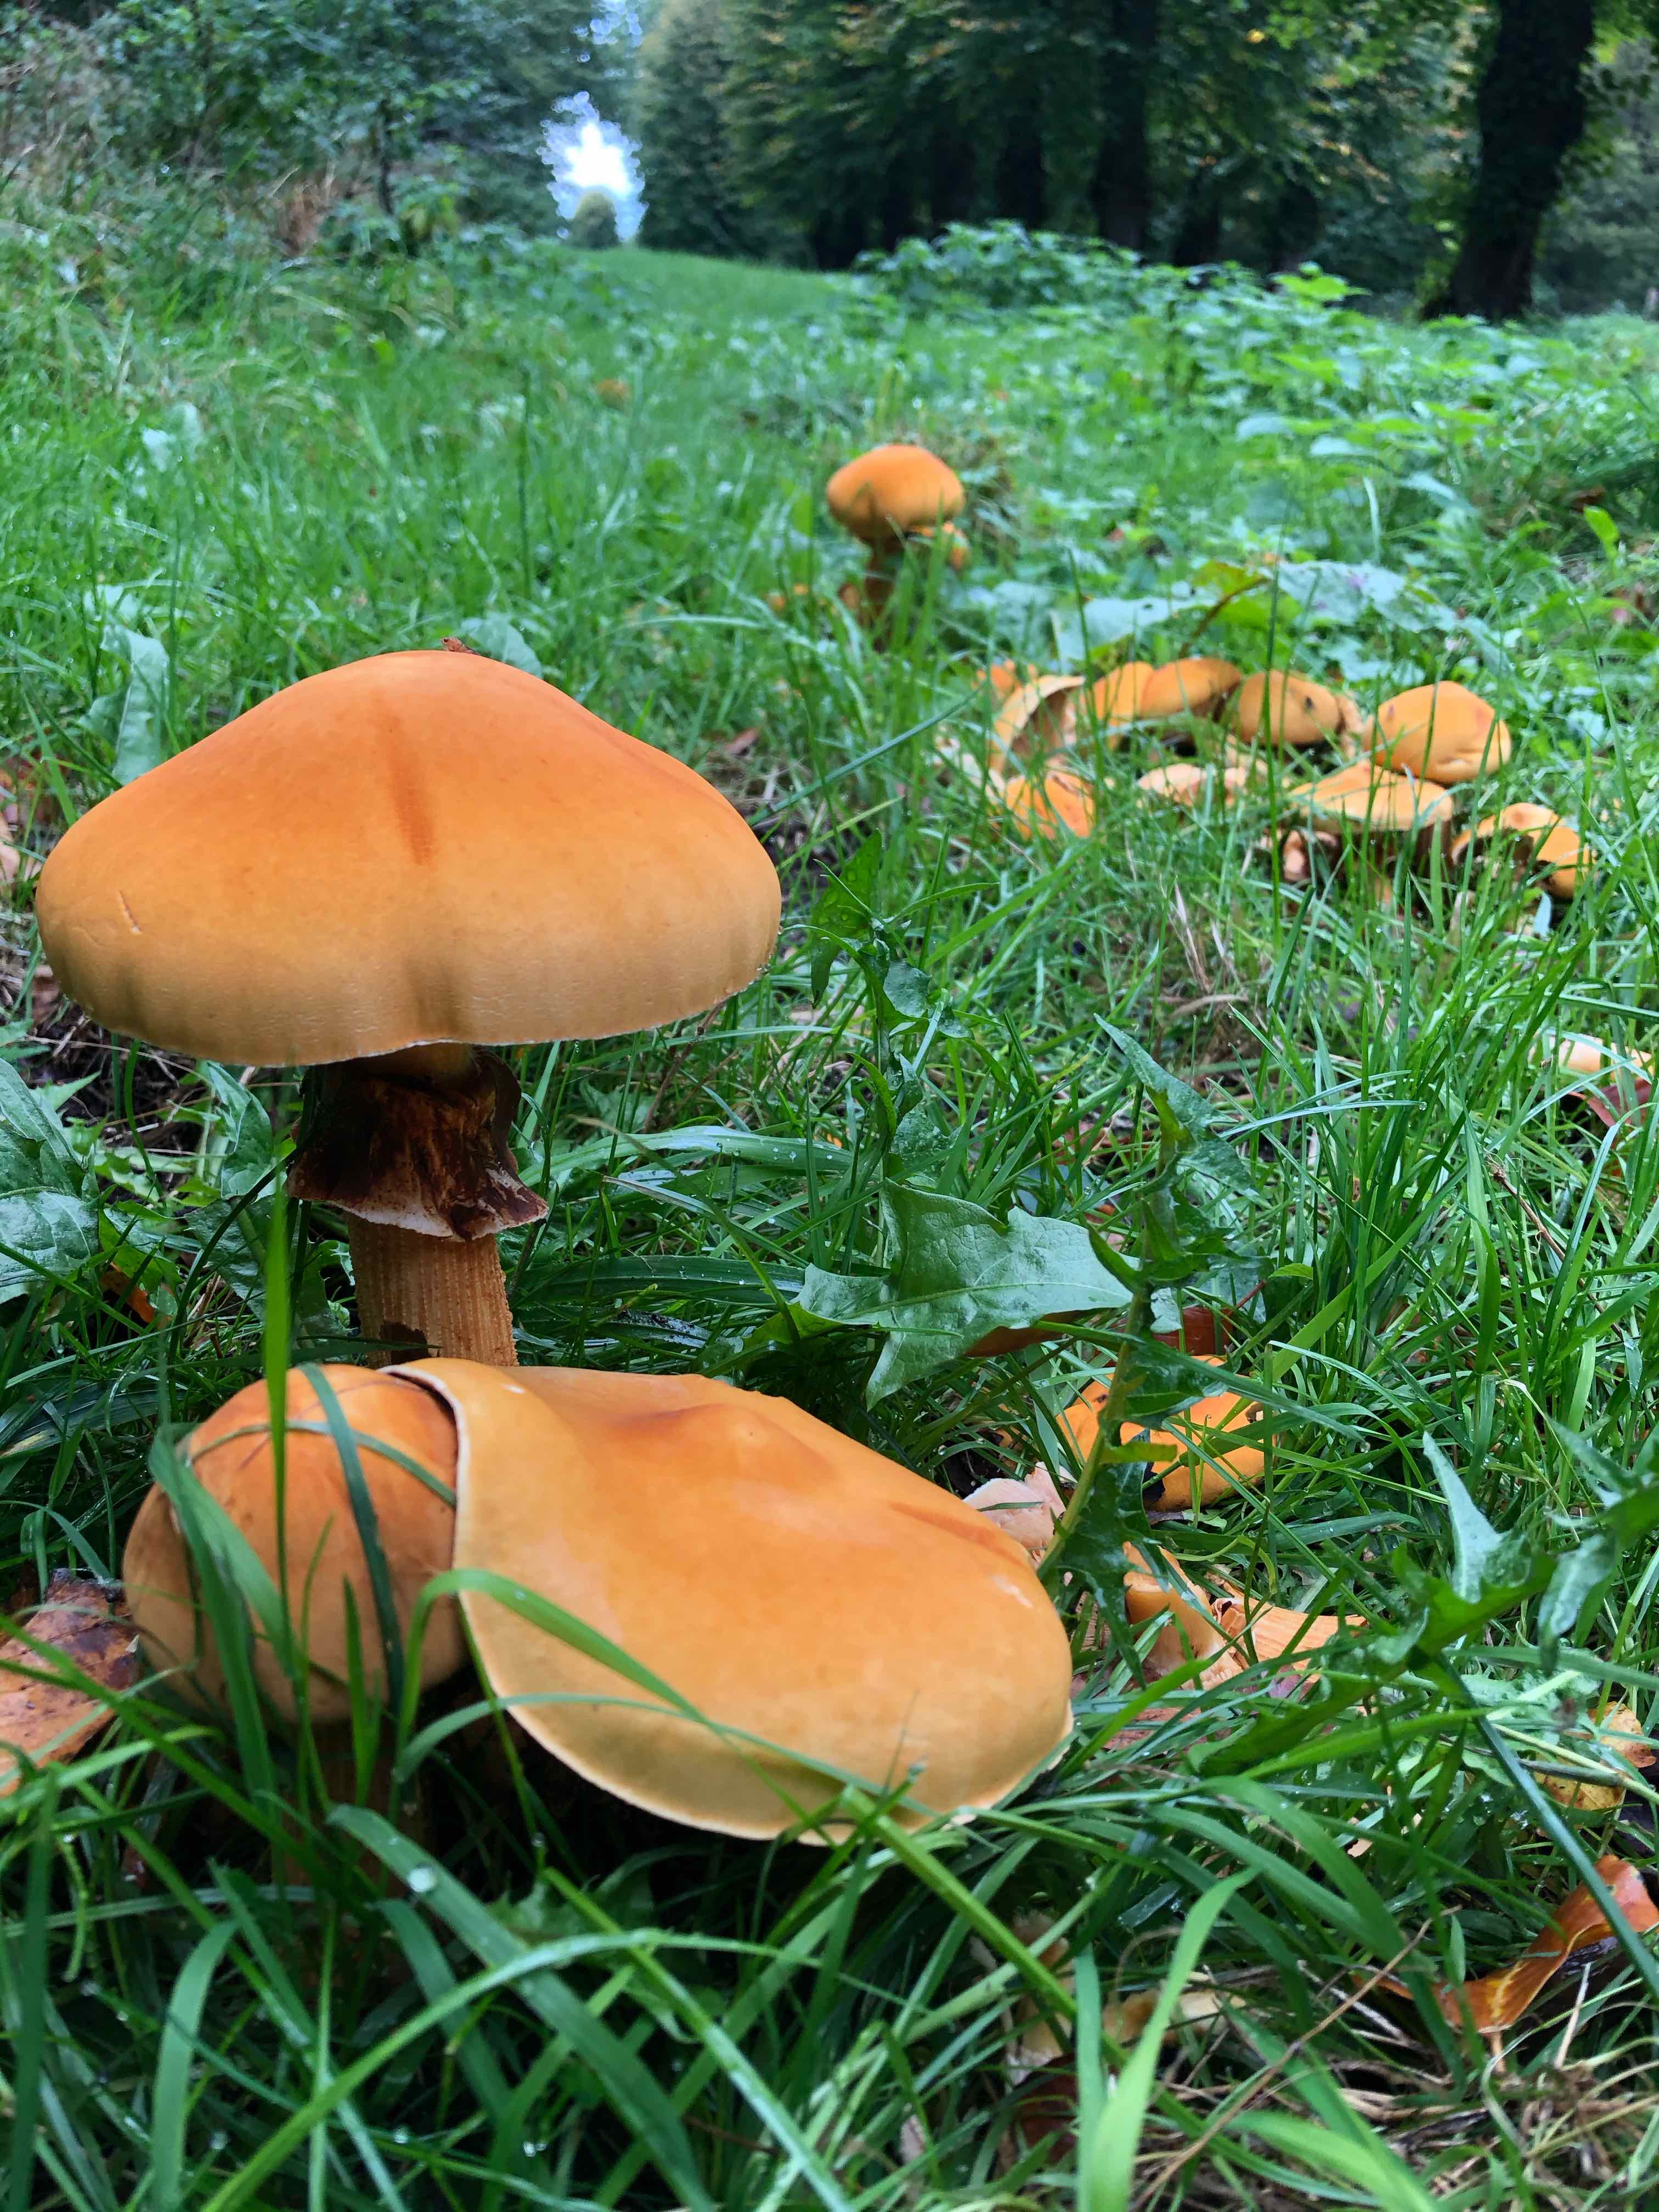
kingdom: Fungi
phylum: Basidiomycota
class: Agaricomycetes
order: Agaricales
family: Tricholomataceae
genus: Phaeolepiota
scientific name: Phaeolepiota aurea
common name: gyldenhat
